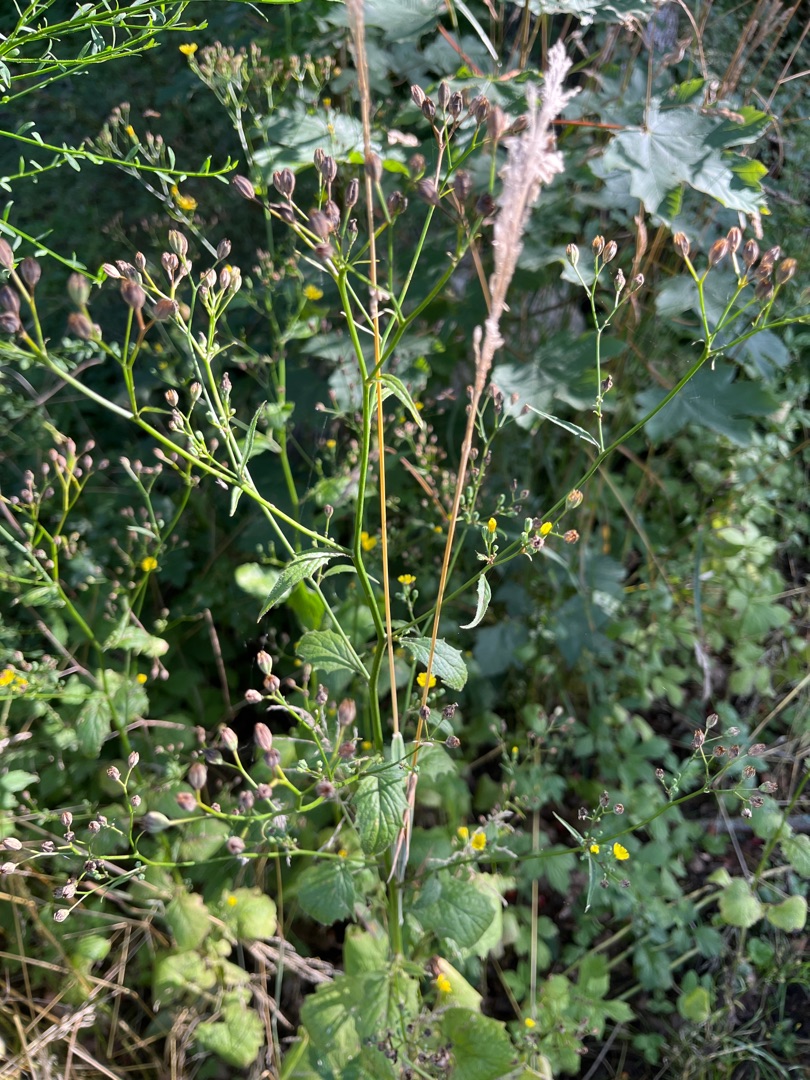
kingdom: Plantae
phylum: Tracheophyta
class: Magnoliopsida
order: Asterales
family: Asteraceae
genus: Lapsana
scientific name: Lapsana communis
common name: Haremad
